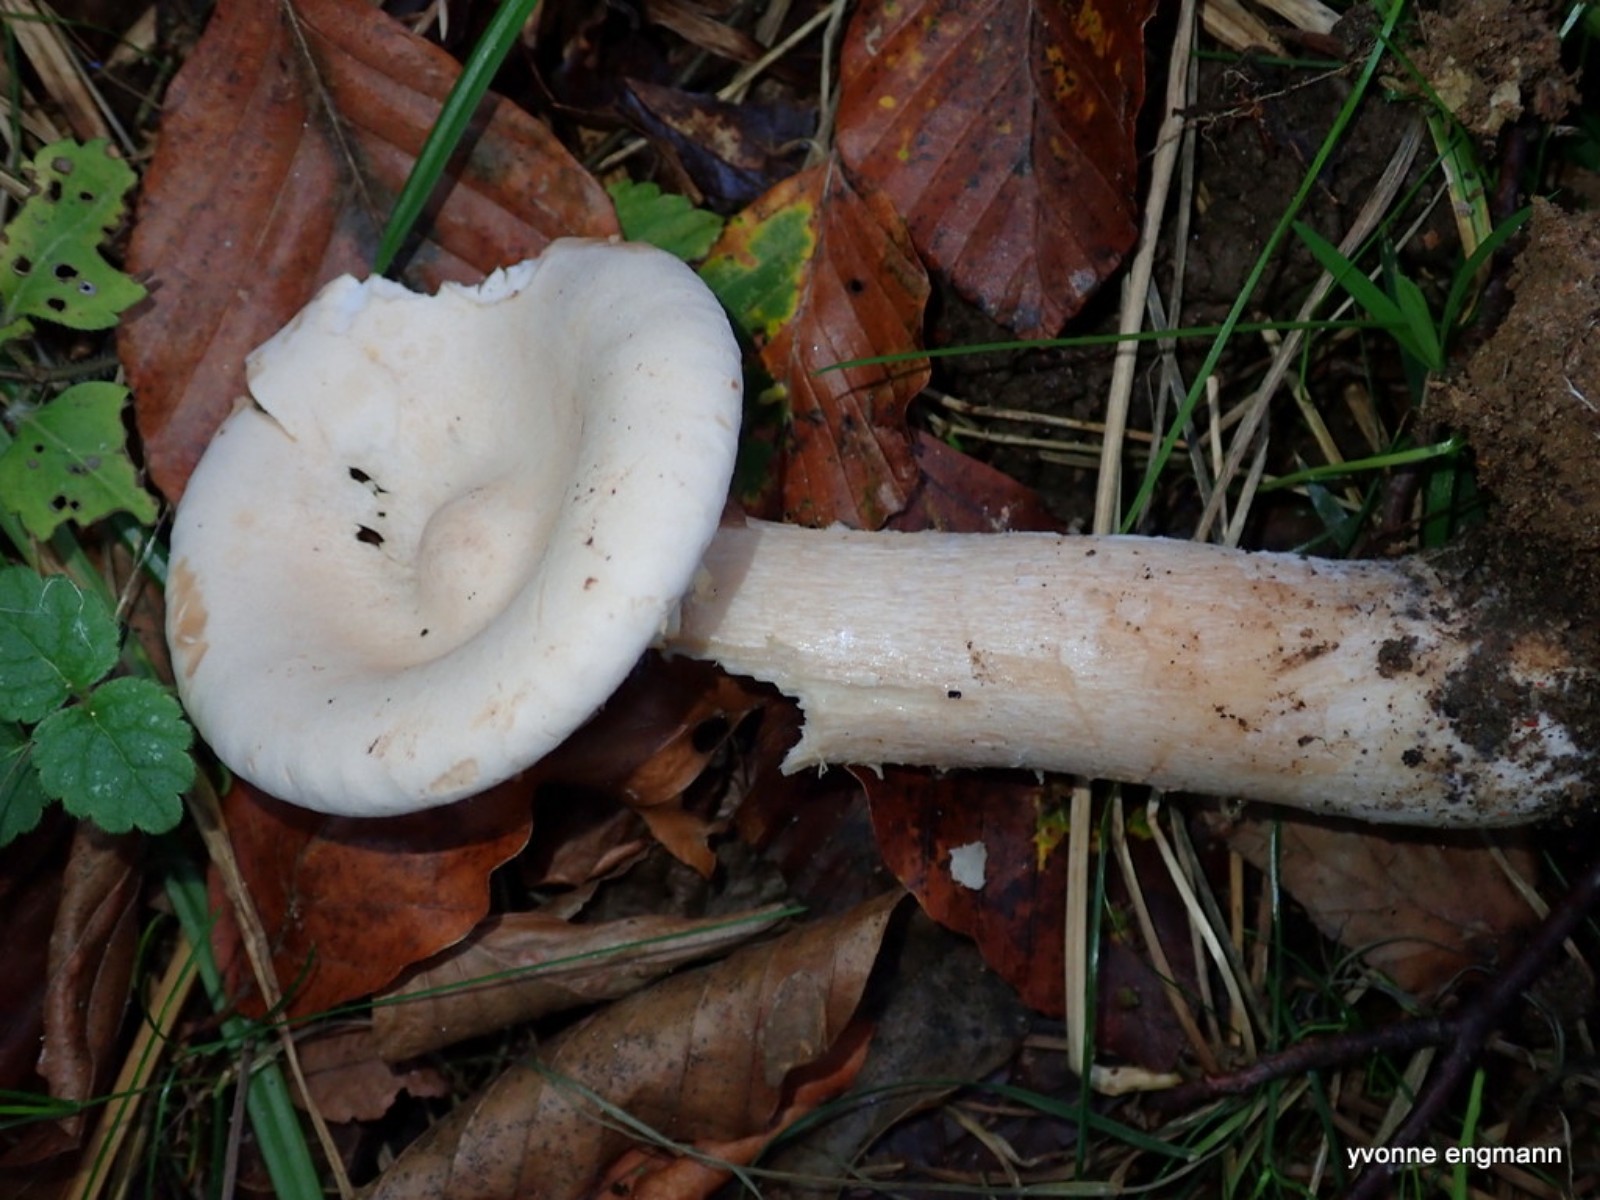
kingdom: Fungi
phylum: Basidiomycota
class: Agaricomycetes
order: Agaricales
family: Tricholomataceae
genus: Infundibulicybe
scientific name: Infundibulicybe geotropa
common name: stor tragthat
